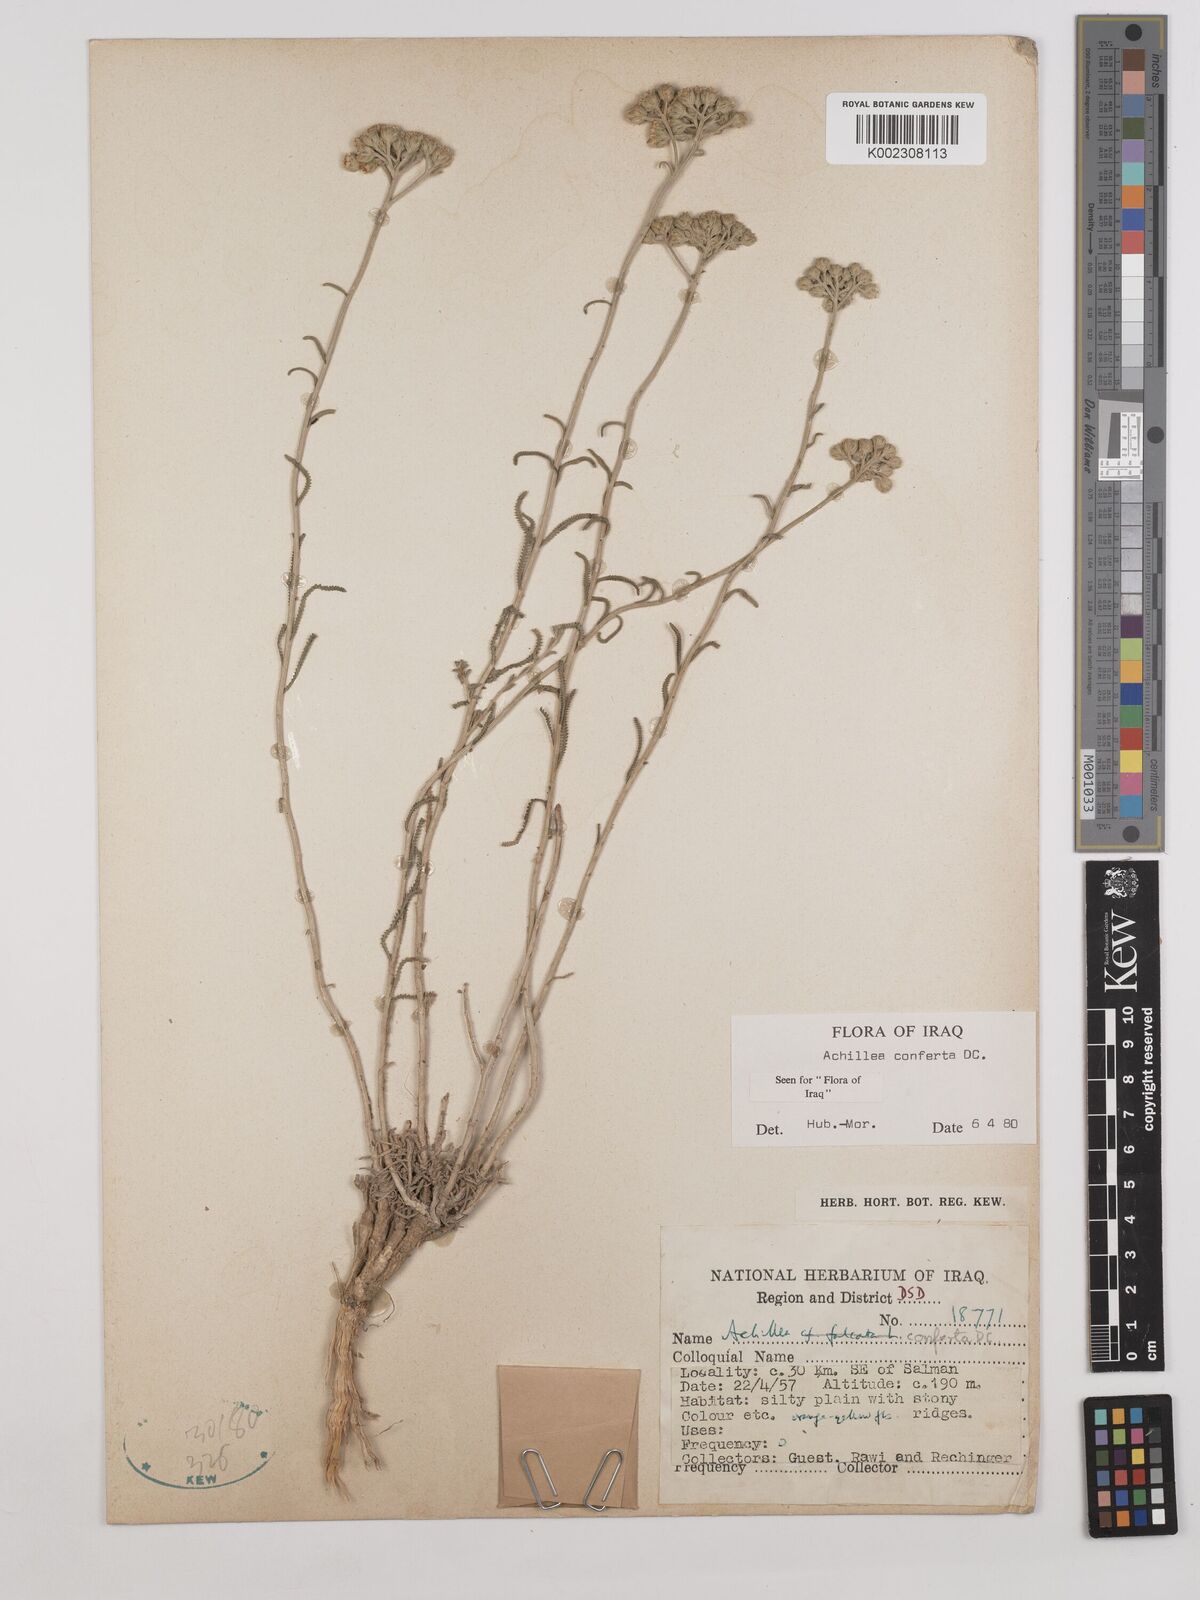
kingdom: Plantae
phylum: Tracheophyta
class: Magnoliopsida
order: Asterales
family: Asteraceae
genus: Achillea
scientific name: Achillea conferta
